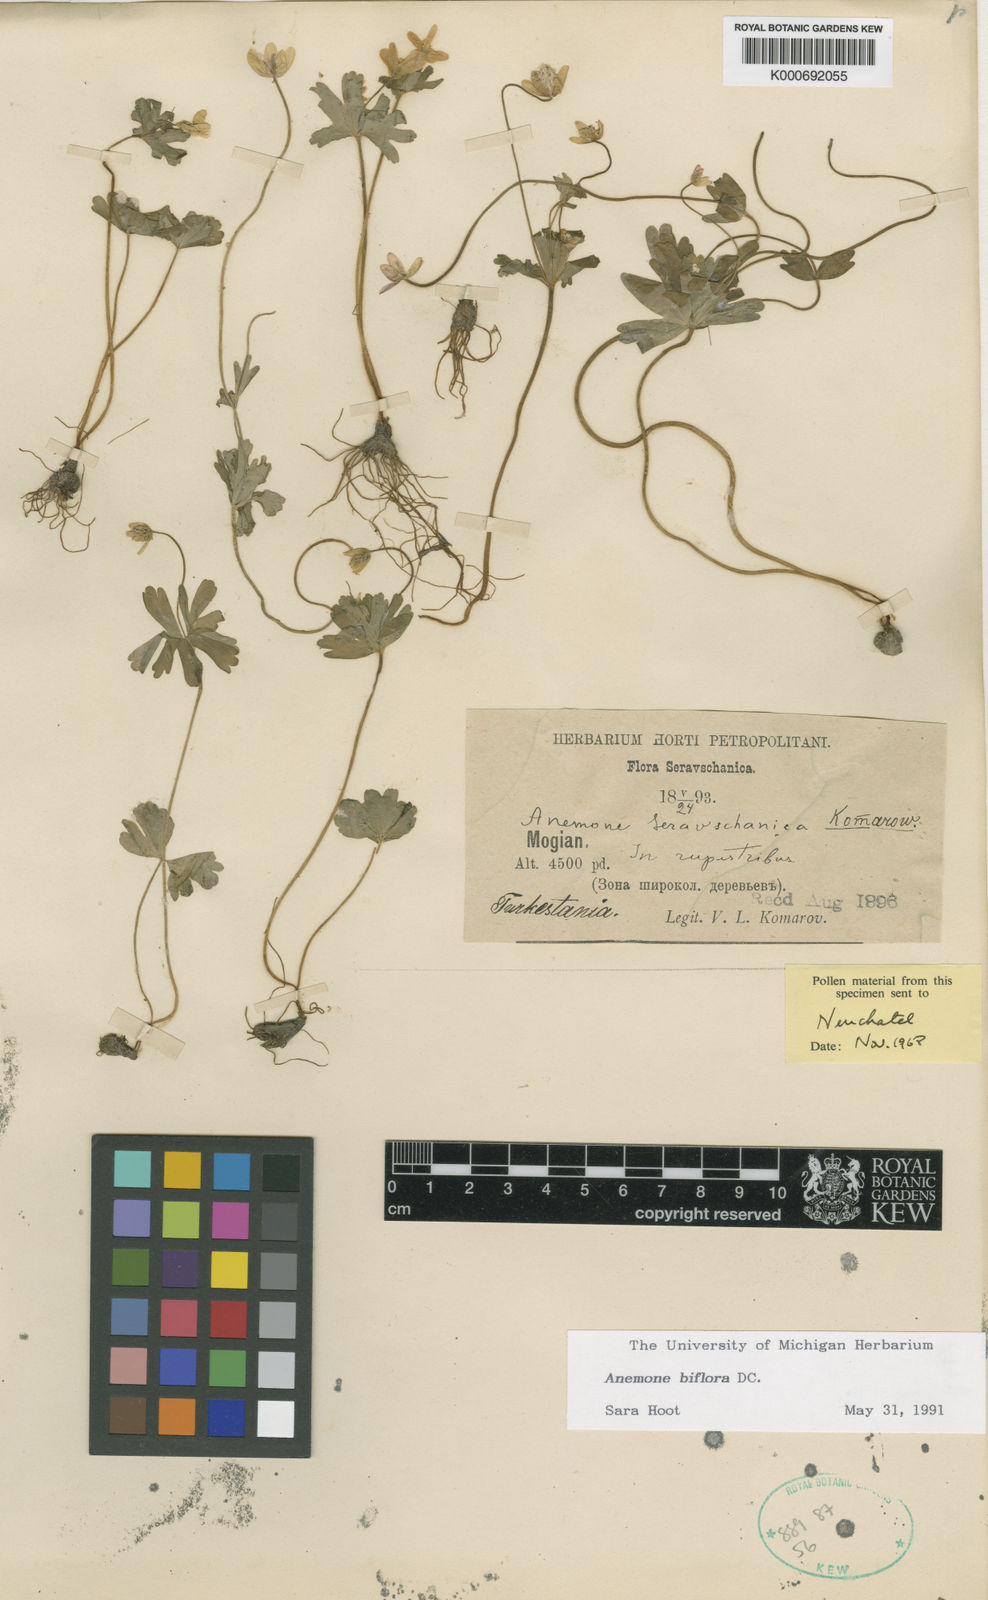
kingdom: Plantae
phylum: Tracheophyta
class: Magnoliopsida
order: Ranunculales
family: Ranunculaceae
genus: Anemone
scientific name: Anemone seravschanica
